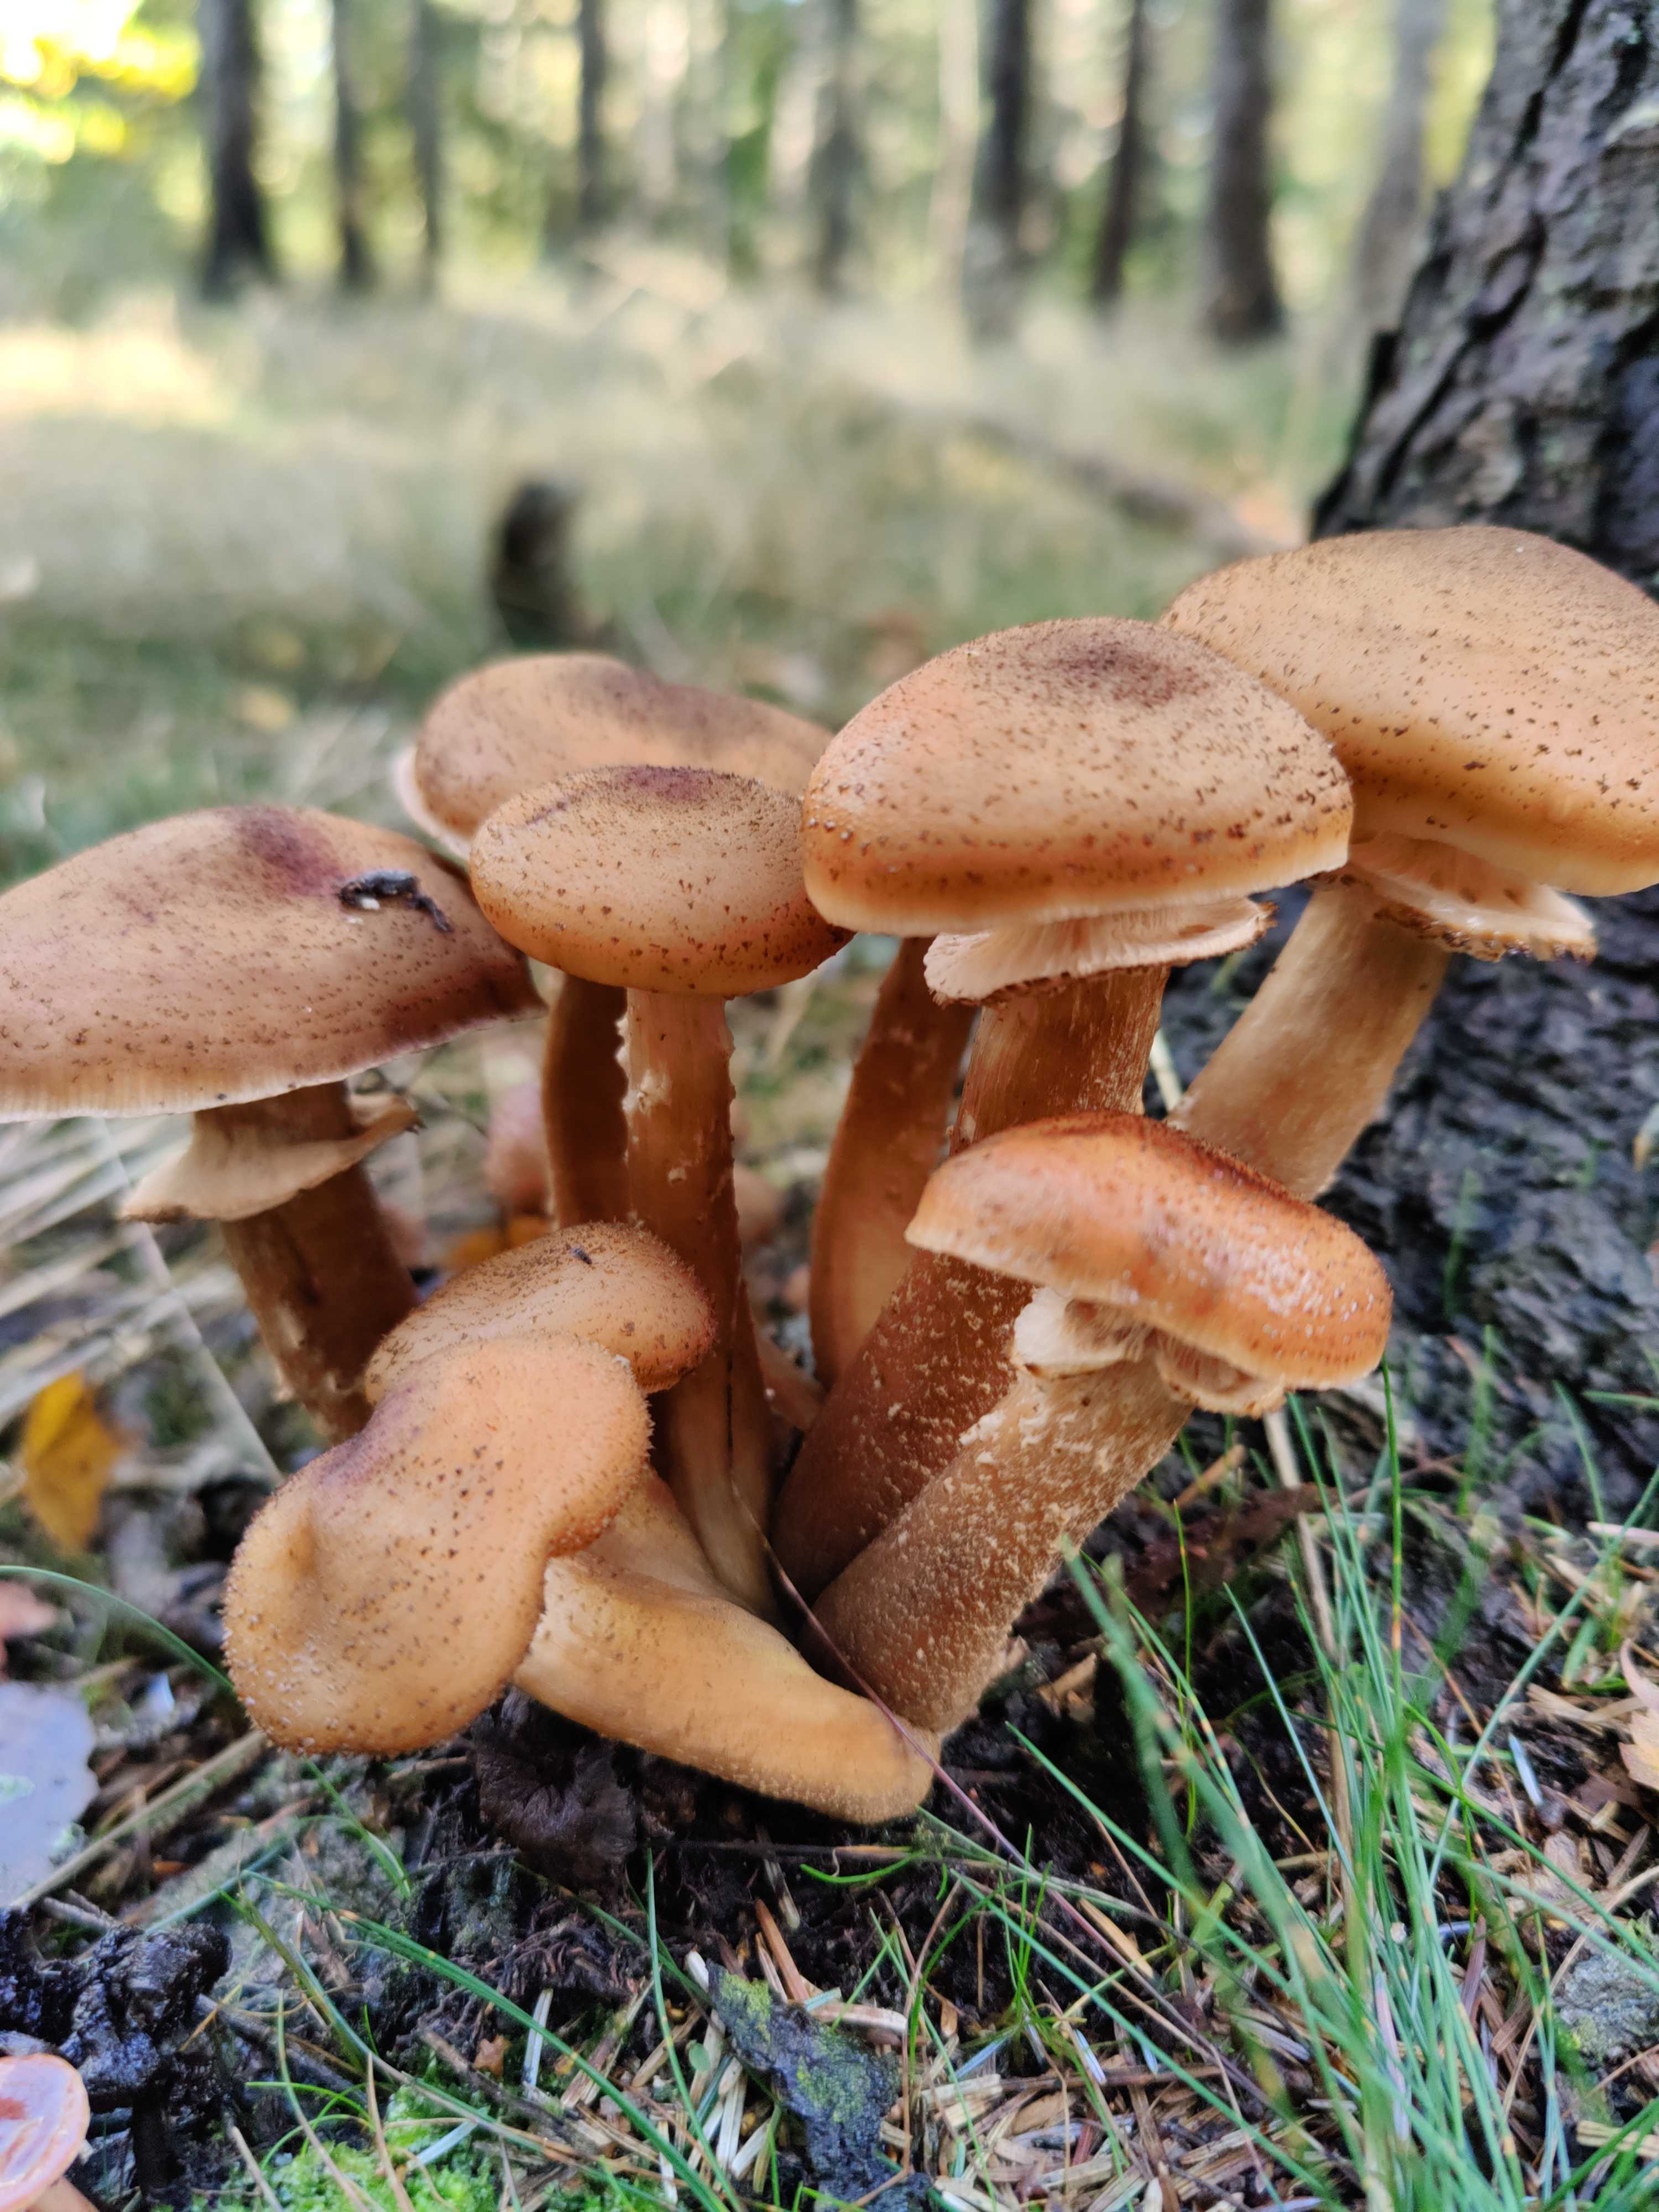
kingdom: Fungi
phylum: Basidiomycota
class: Agaricomycetes
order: Agaricales
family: Physalacriaceae
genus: Armillaria
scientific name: Armillaria ostoyae
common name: mørk honningsvamp
